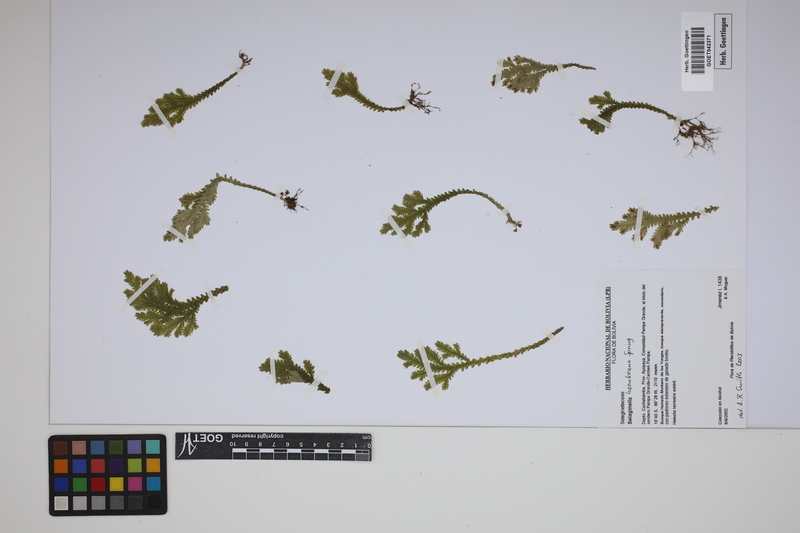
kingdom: Plantae
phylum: Tracheophyta
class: Lycopodiopsida
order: Selaginellales
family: Selaginellaceae
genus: Selaginella
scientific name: Selaginella haenkeana
